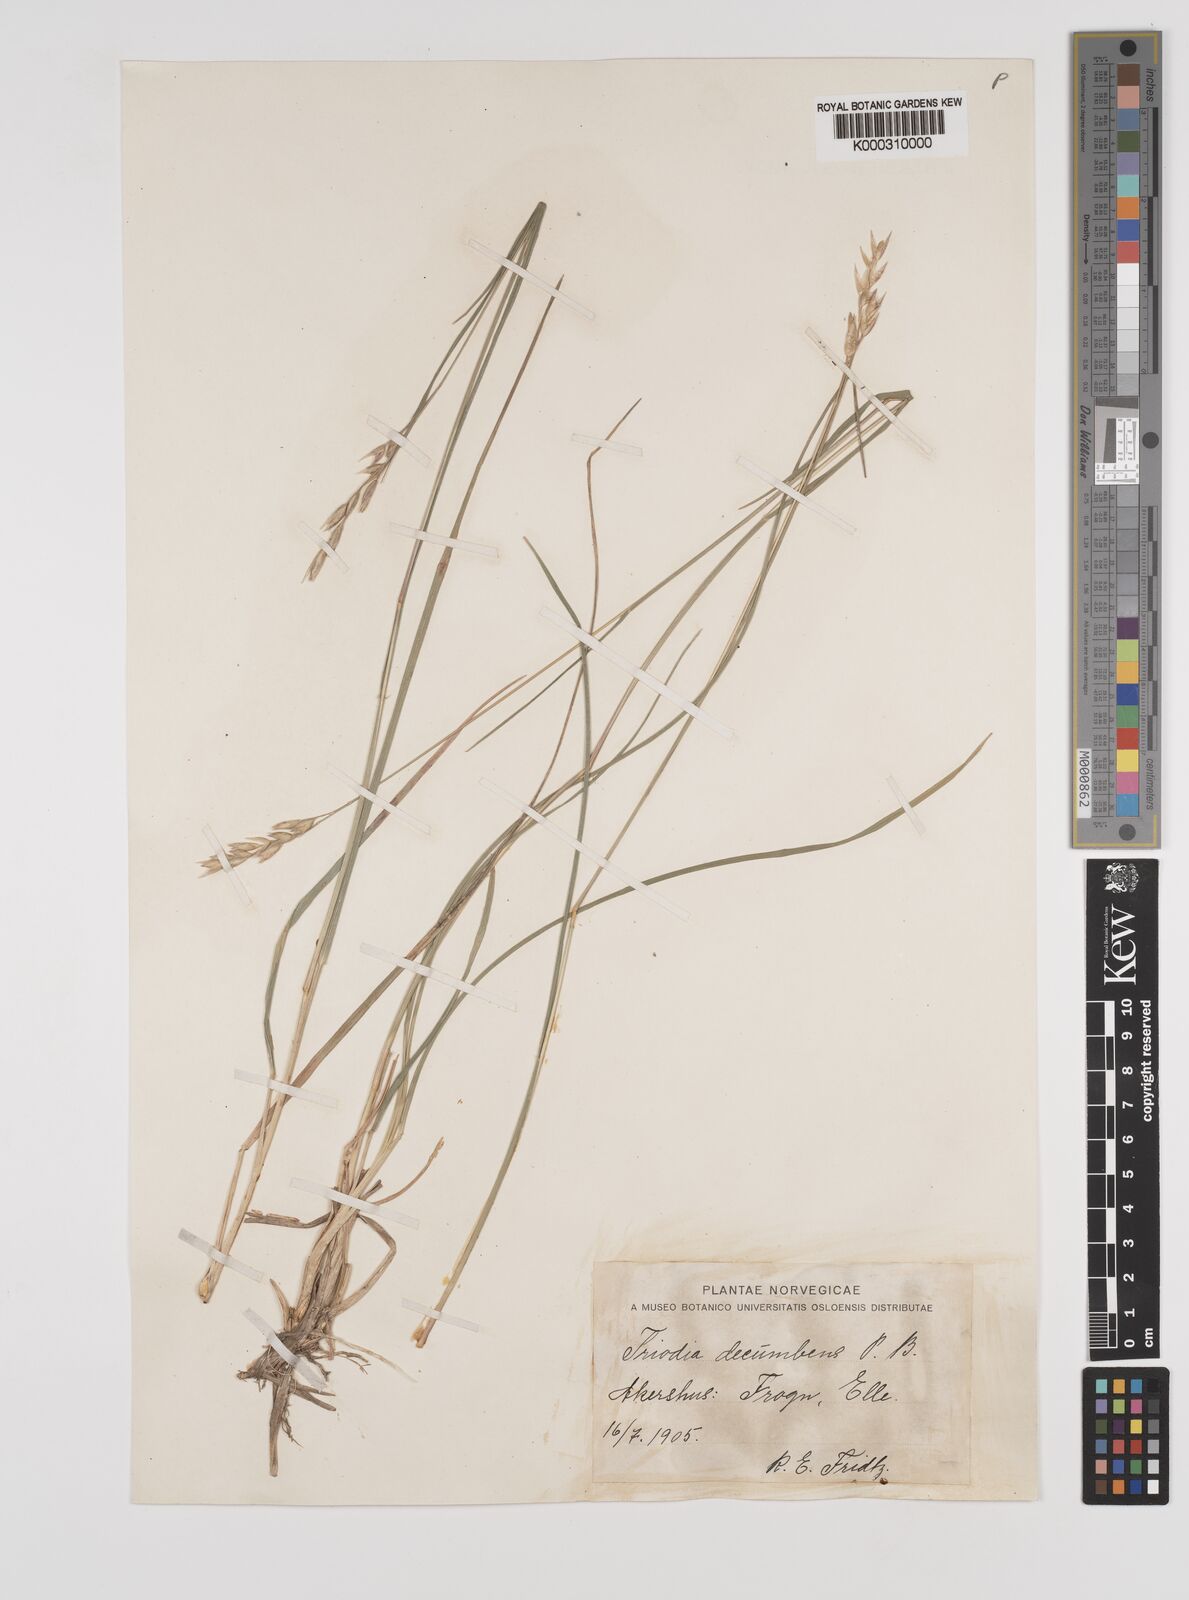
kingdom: Plantae
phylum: Tracheophyta
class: Liliopsida
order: Poales
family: Poaceae
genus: Danthonia
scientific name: Danthonia decumbens
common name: Common heathgrass
